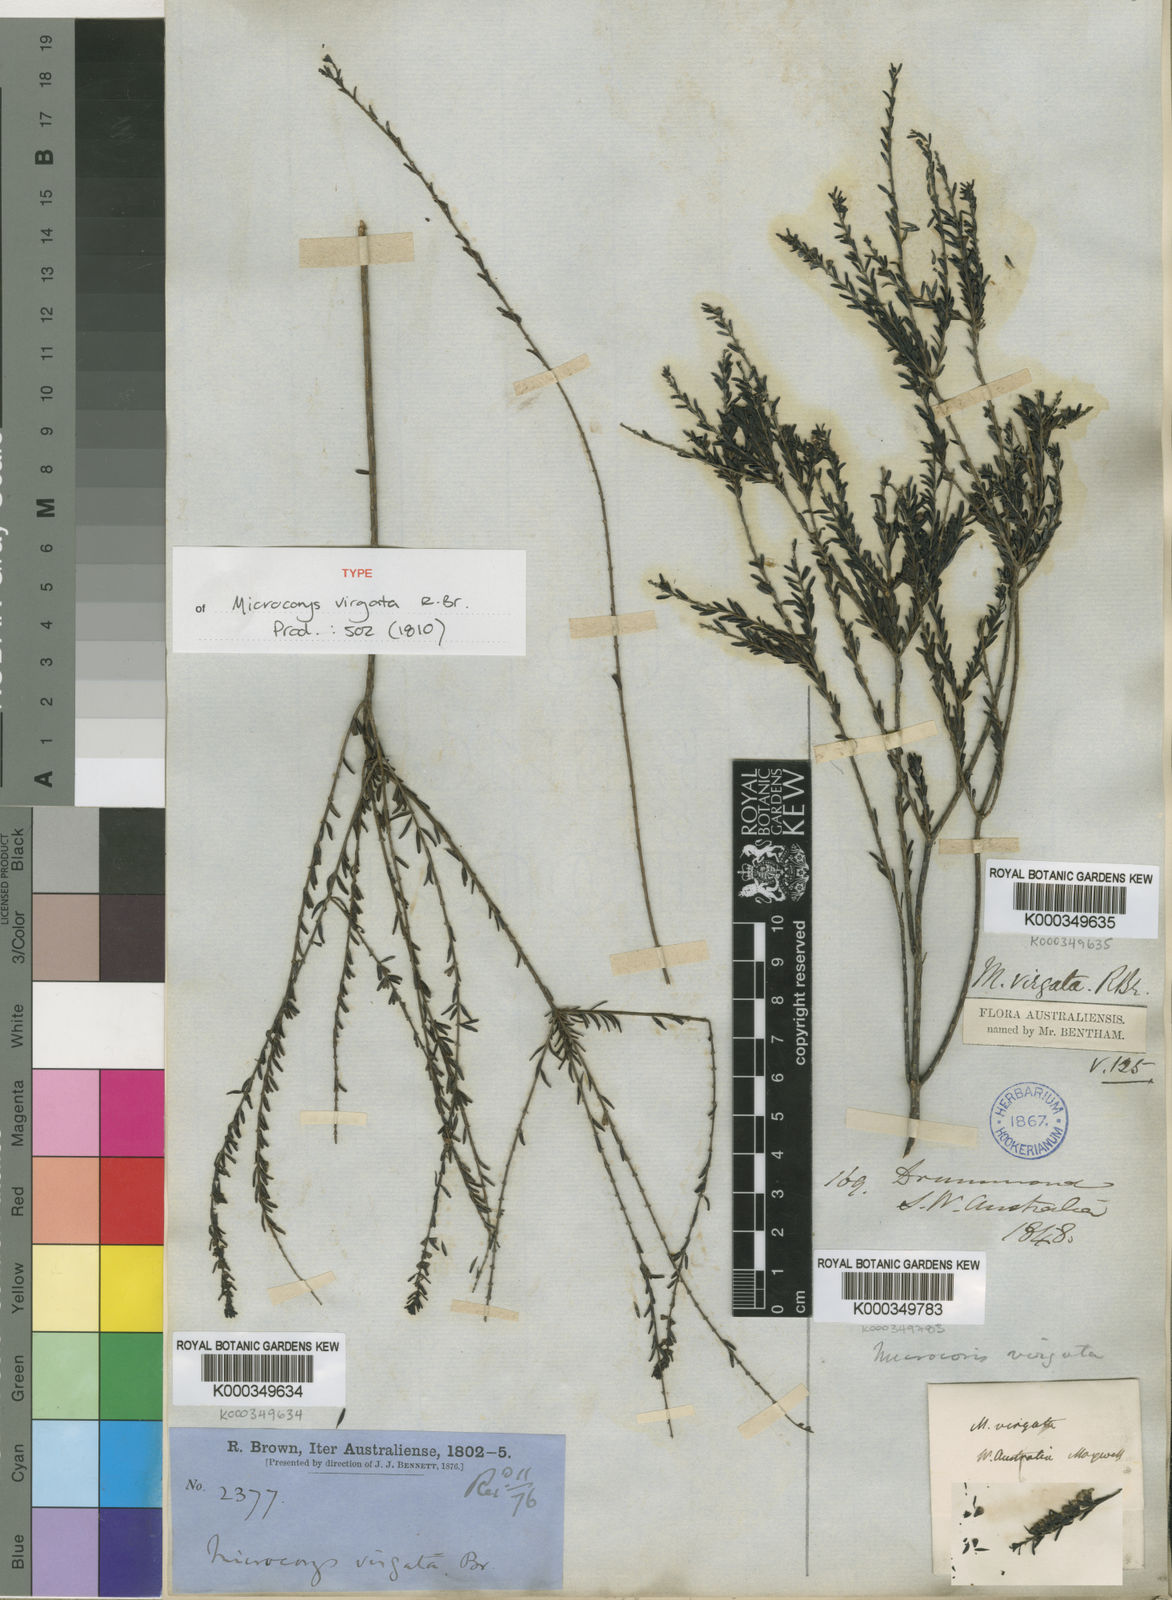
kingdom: Plantae
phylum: Tracheophyta
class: Magnoliopsida
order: Lamiales
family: Lamiaceae
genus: Microcorys
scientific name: Microcorys virgata
